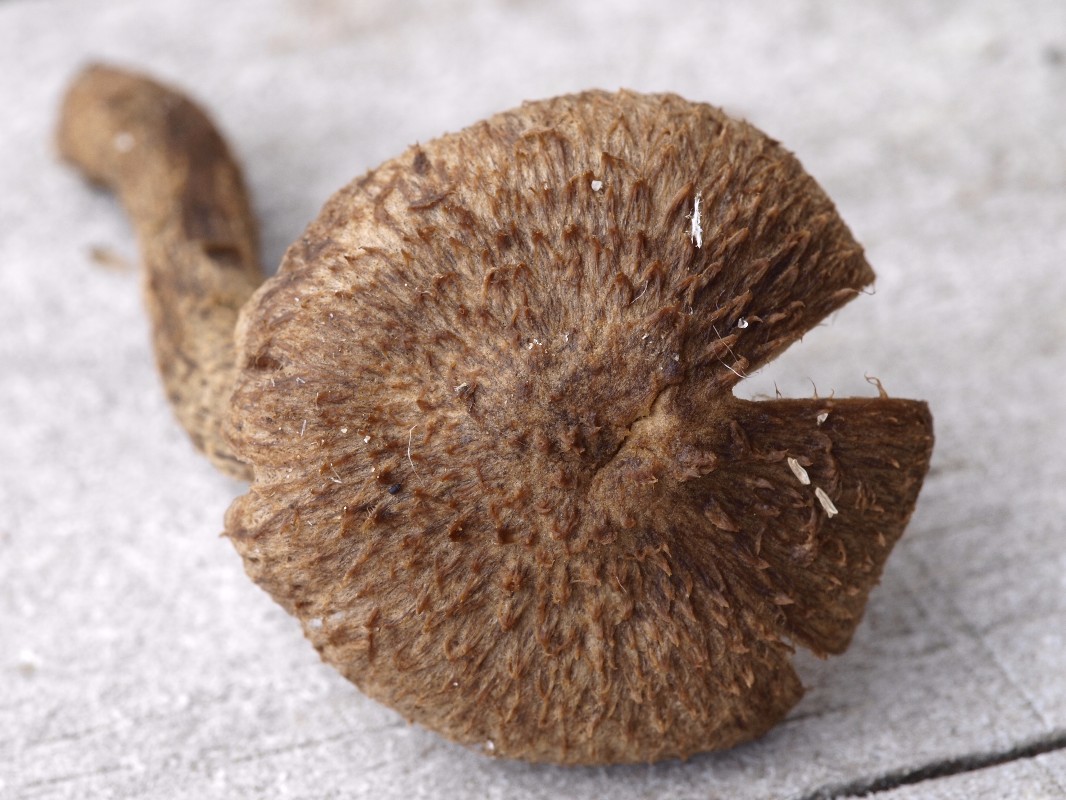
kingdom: Fungi
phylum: Basidiomycota
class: Agaricomycetes
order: Agaricales
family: Inocybaceae
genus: Inocybe
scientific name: Inocybe lanuginosa
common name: uldskællet trævlhat
